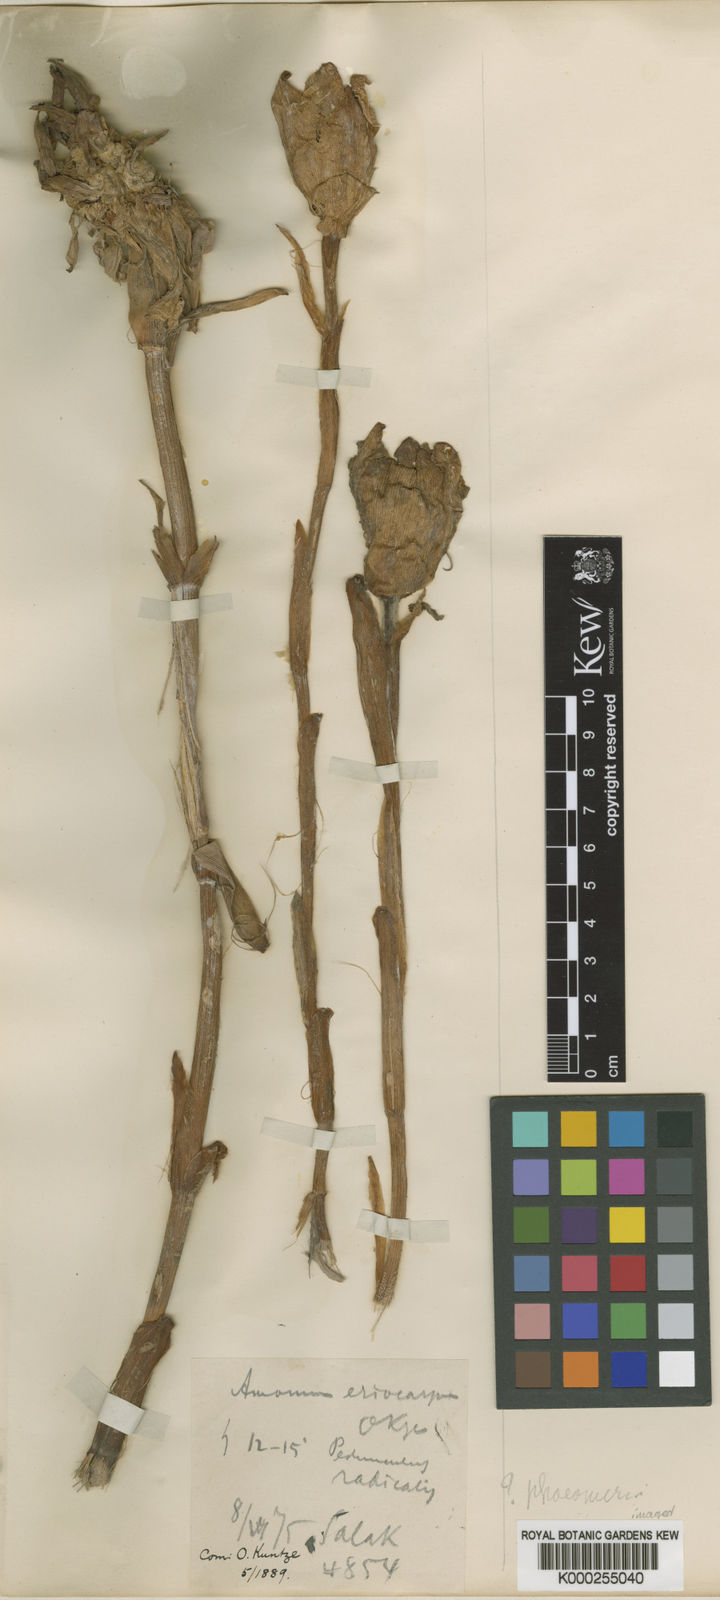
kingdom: Plantae
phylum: Tracheophyta
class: Liliopsida
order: Zingiberales
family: Zingiberaceae
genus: Etlingera
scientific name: Etlingera hemisphaerica
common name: Black tulip
